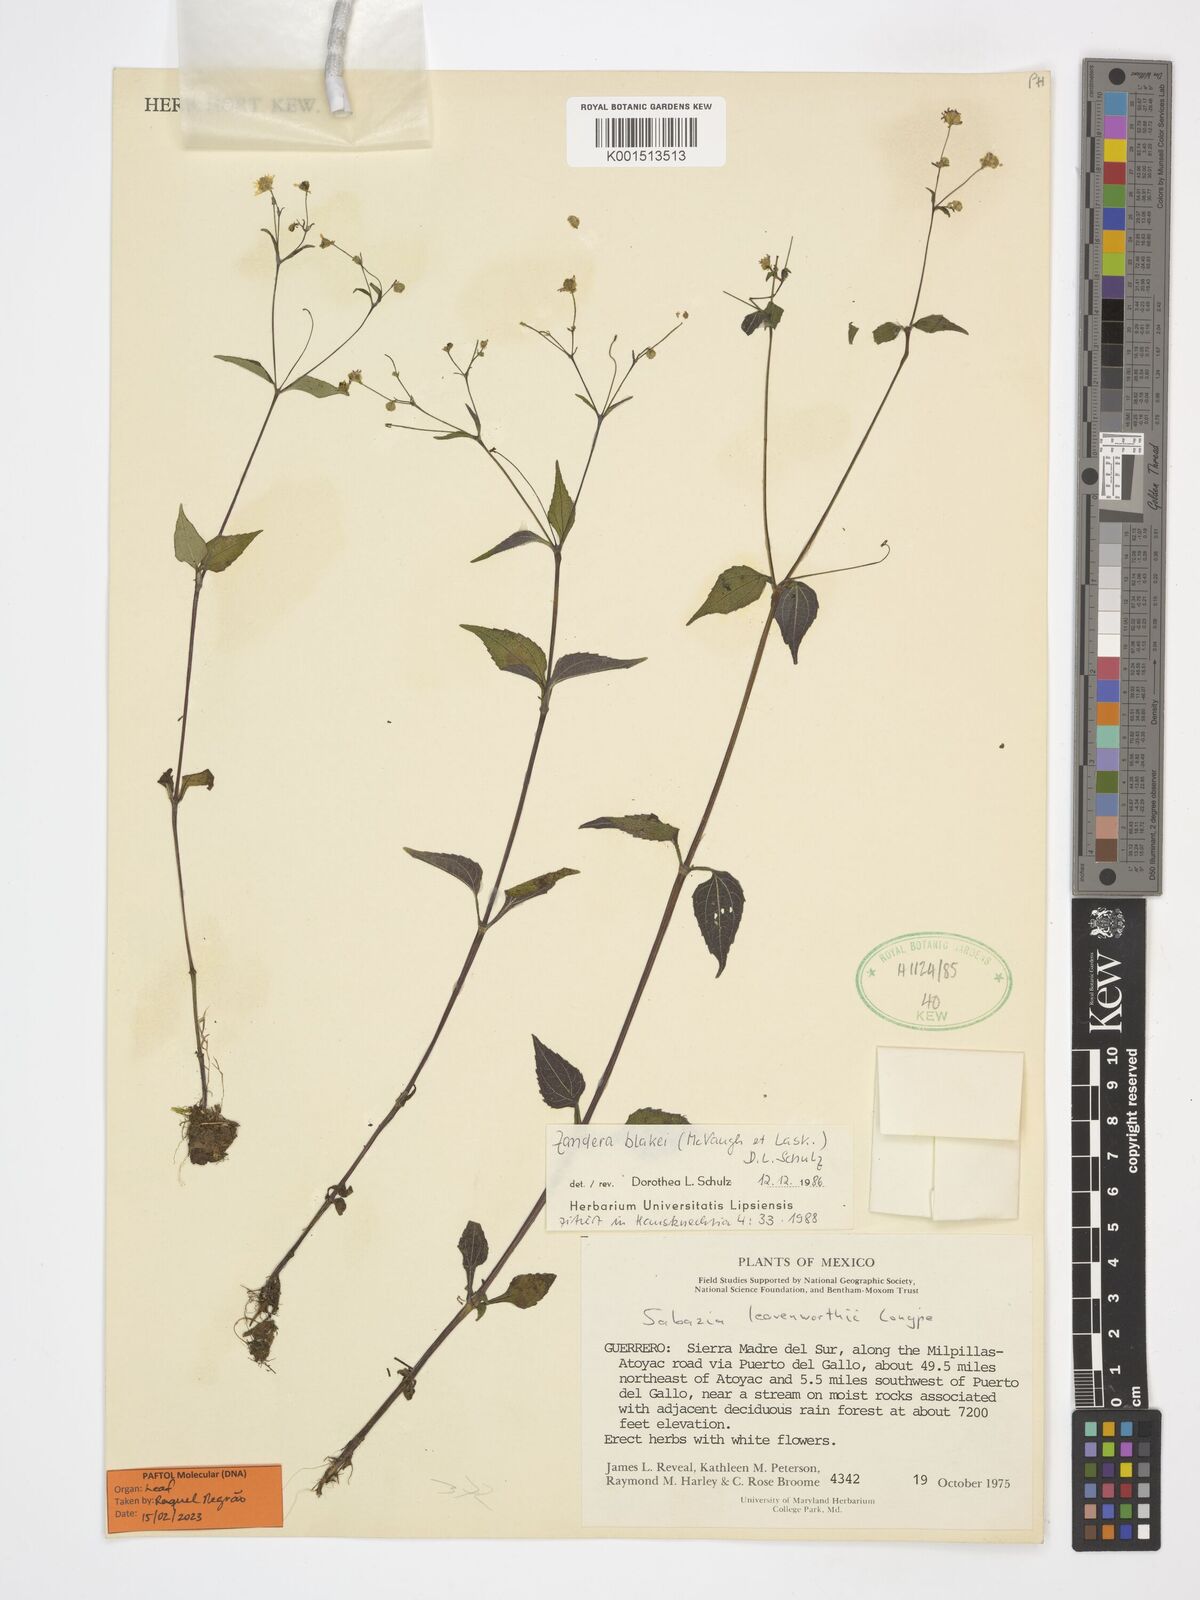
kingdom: Plantae
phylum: Tracheophyta
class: Magnoliopsida
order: Asterales
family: Asteraceae
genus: Zandera
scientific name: Zandera blakei
